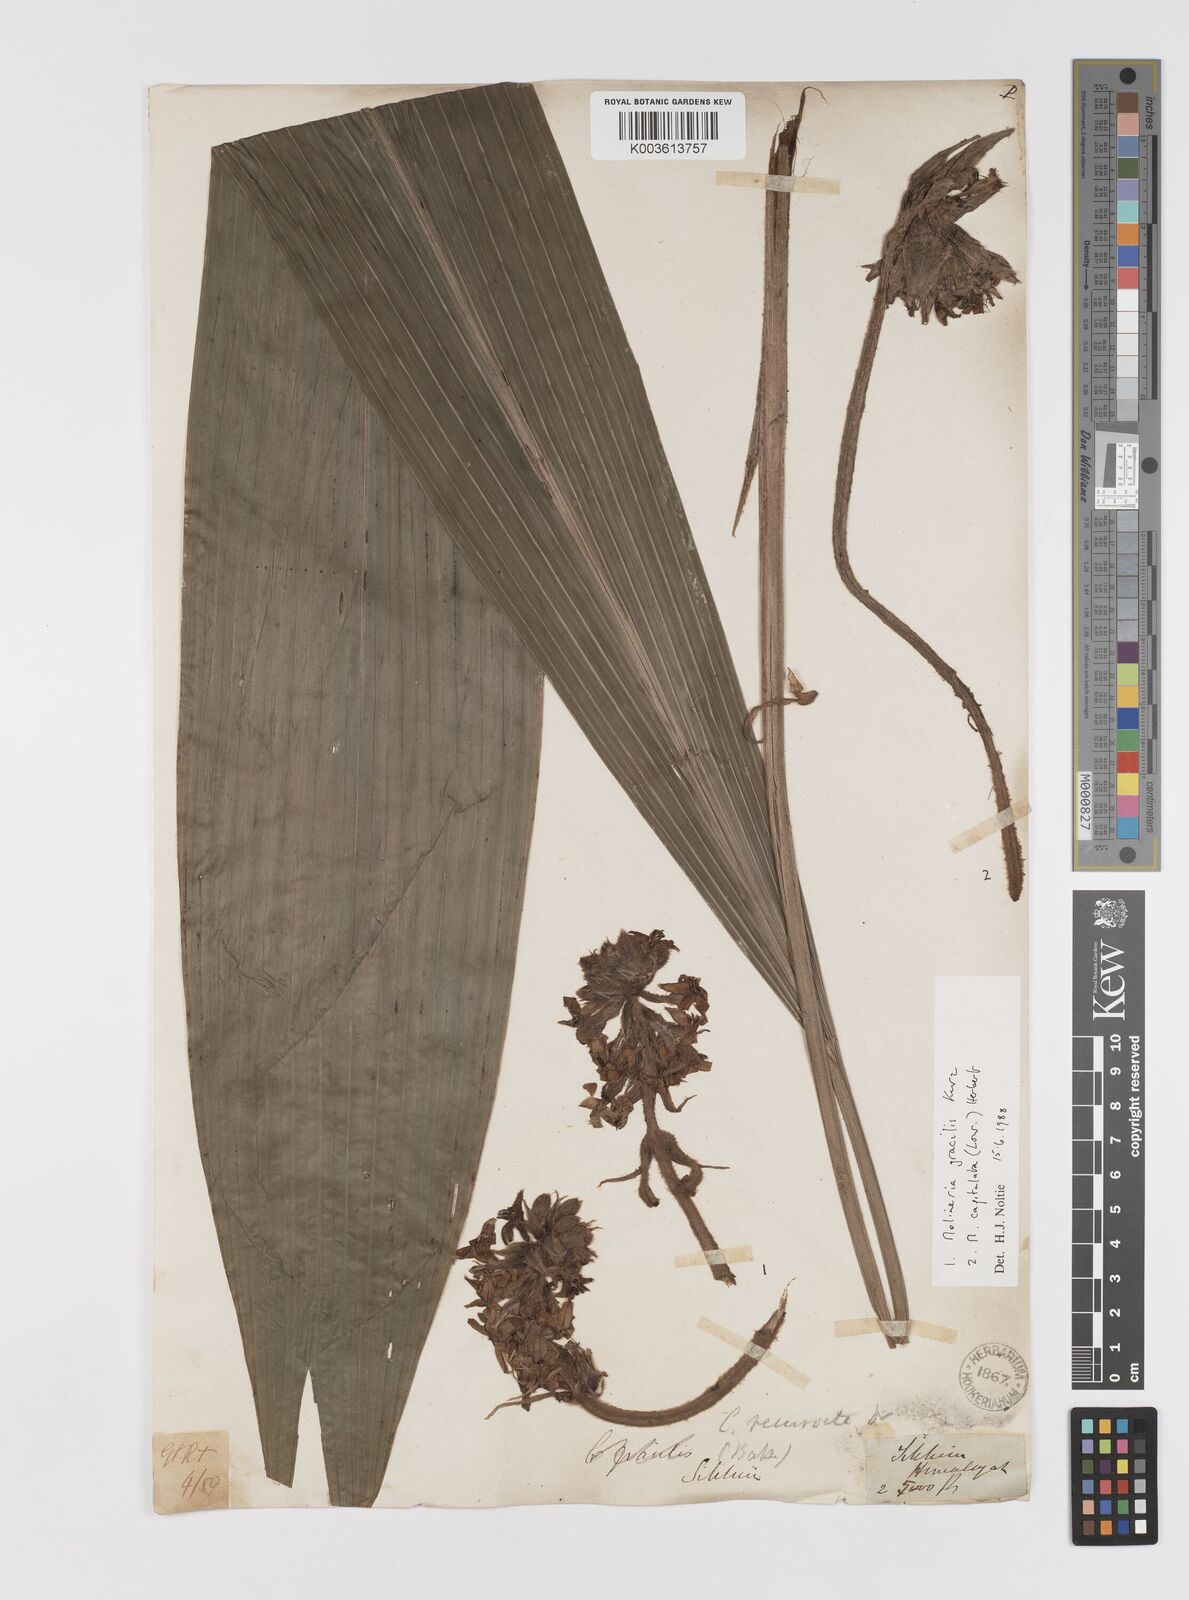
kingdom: Plantae
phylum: Tracheophyta
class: Liliopsida
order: Asparagales
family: Hypoxidaceae
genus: Curculigo
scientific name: Curculigo gracilis
